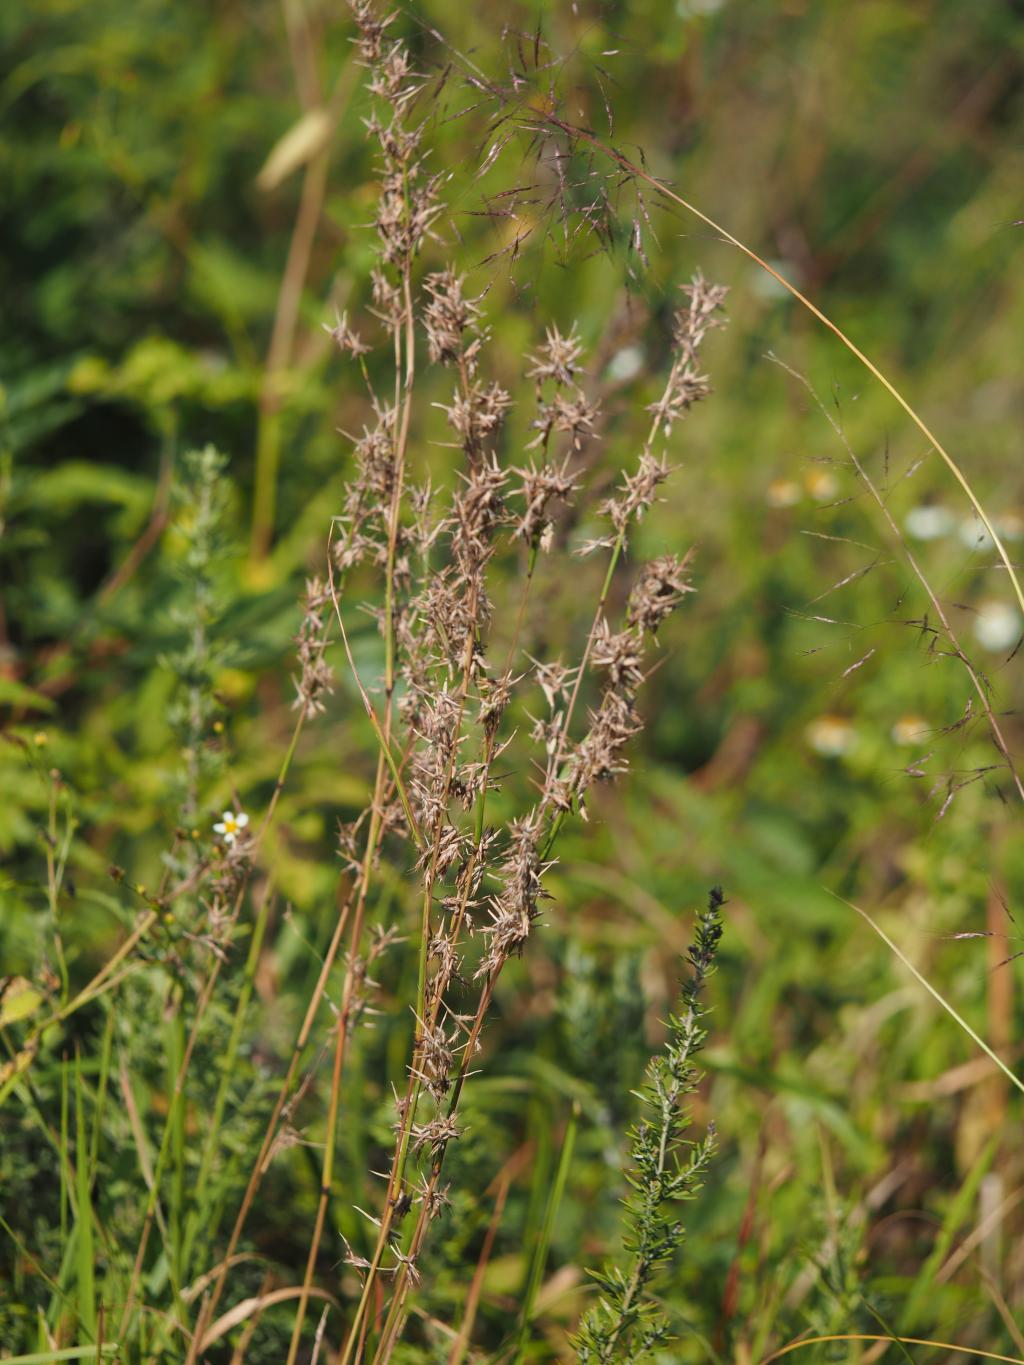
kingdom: Plantae
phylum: Tracheophyta
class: Liliopsida
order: Poales
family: Poaceae
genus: Cymbopogon
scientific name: Cymbopogon tortilis
